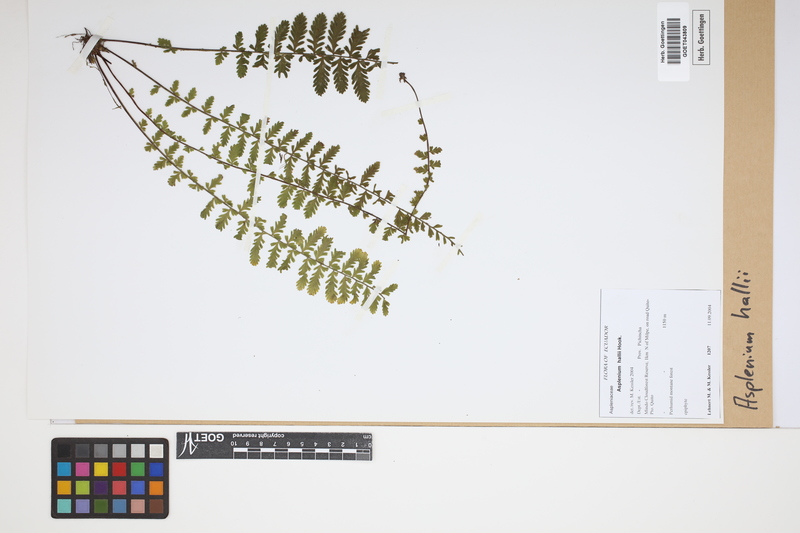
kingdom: Plantae
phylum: Tracheophyta
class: Polypodiopsida
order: Polypodiales
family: Aspleniaceae
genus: Asplenium
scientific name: Asplenium hallii
